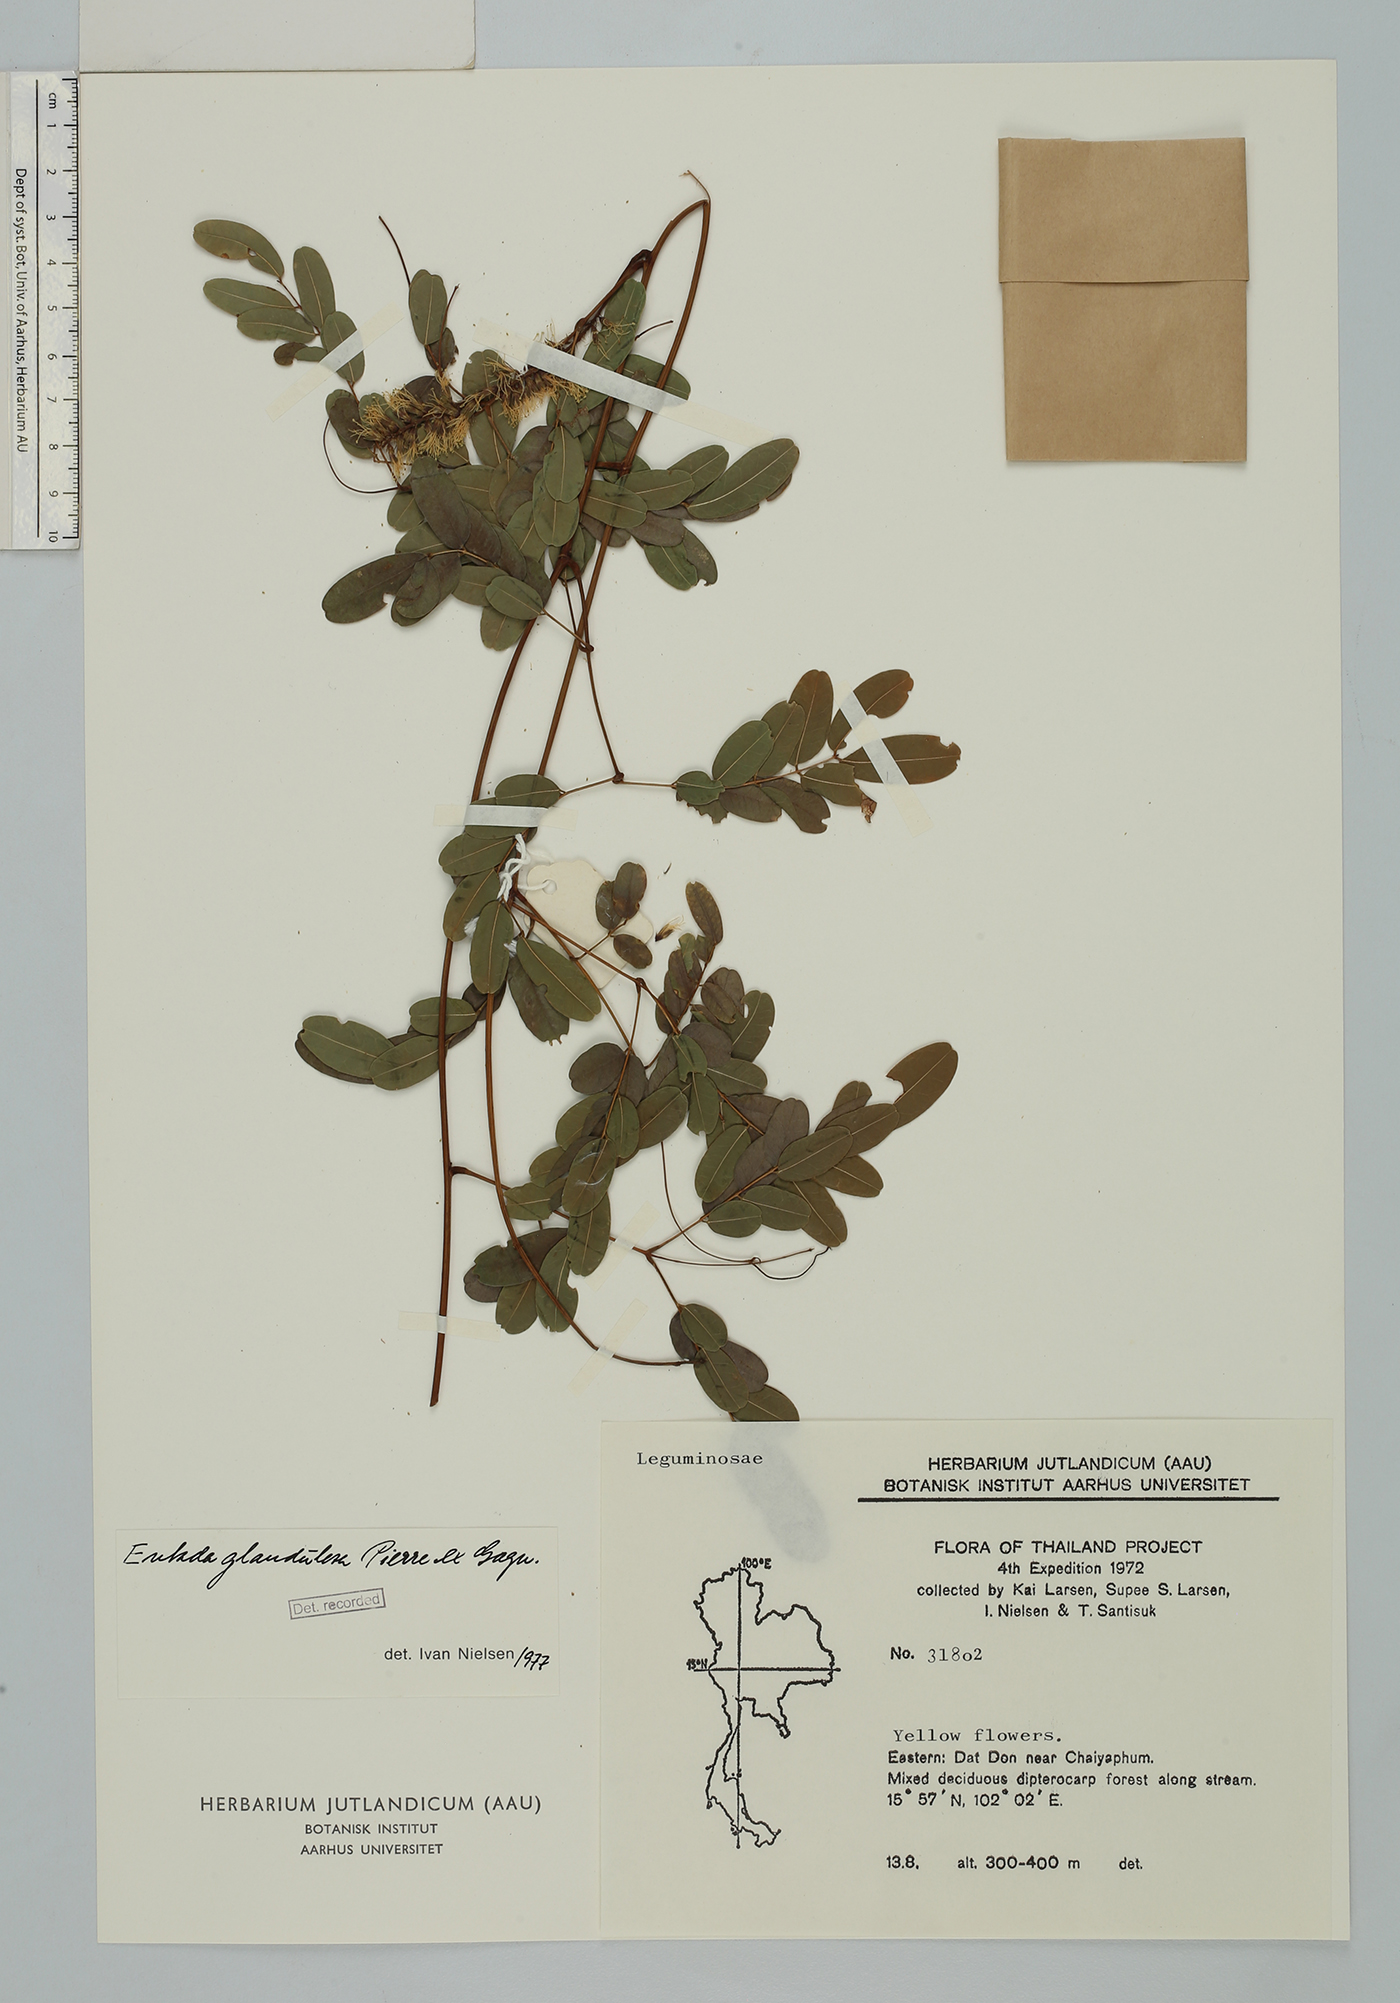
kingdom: Plantae
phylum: Tracheophyta
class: Magnoliopsida
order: Fabales
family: Fabaceae
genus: Entada
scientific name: Entada glandulosa
